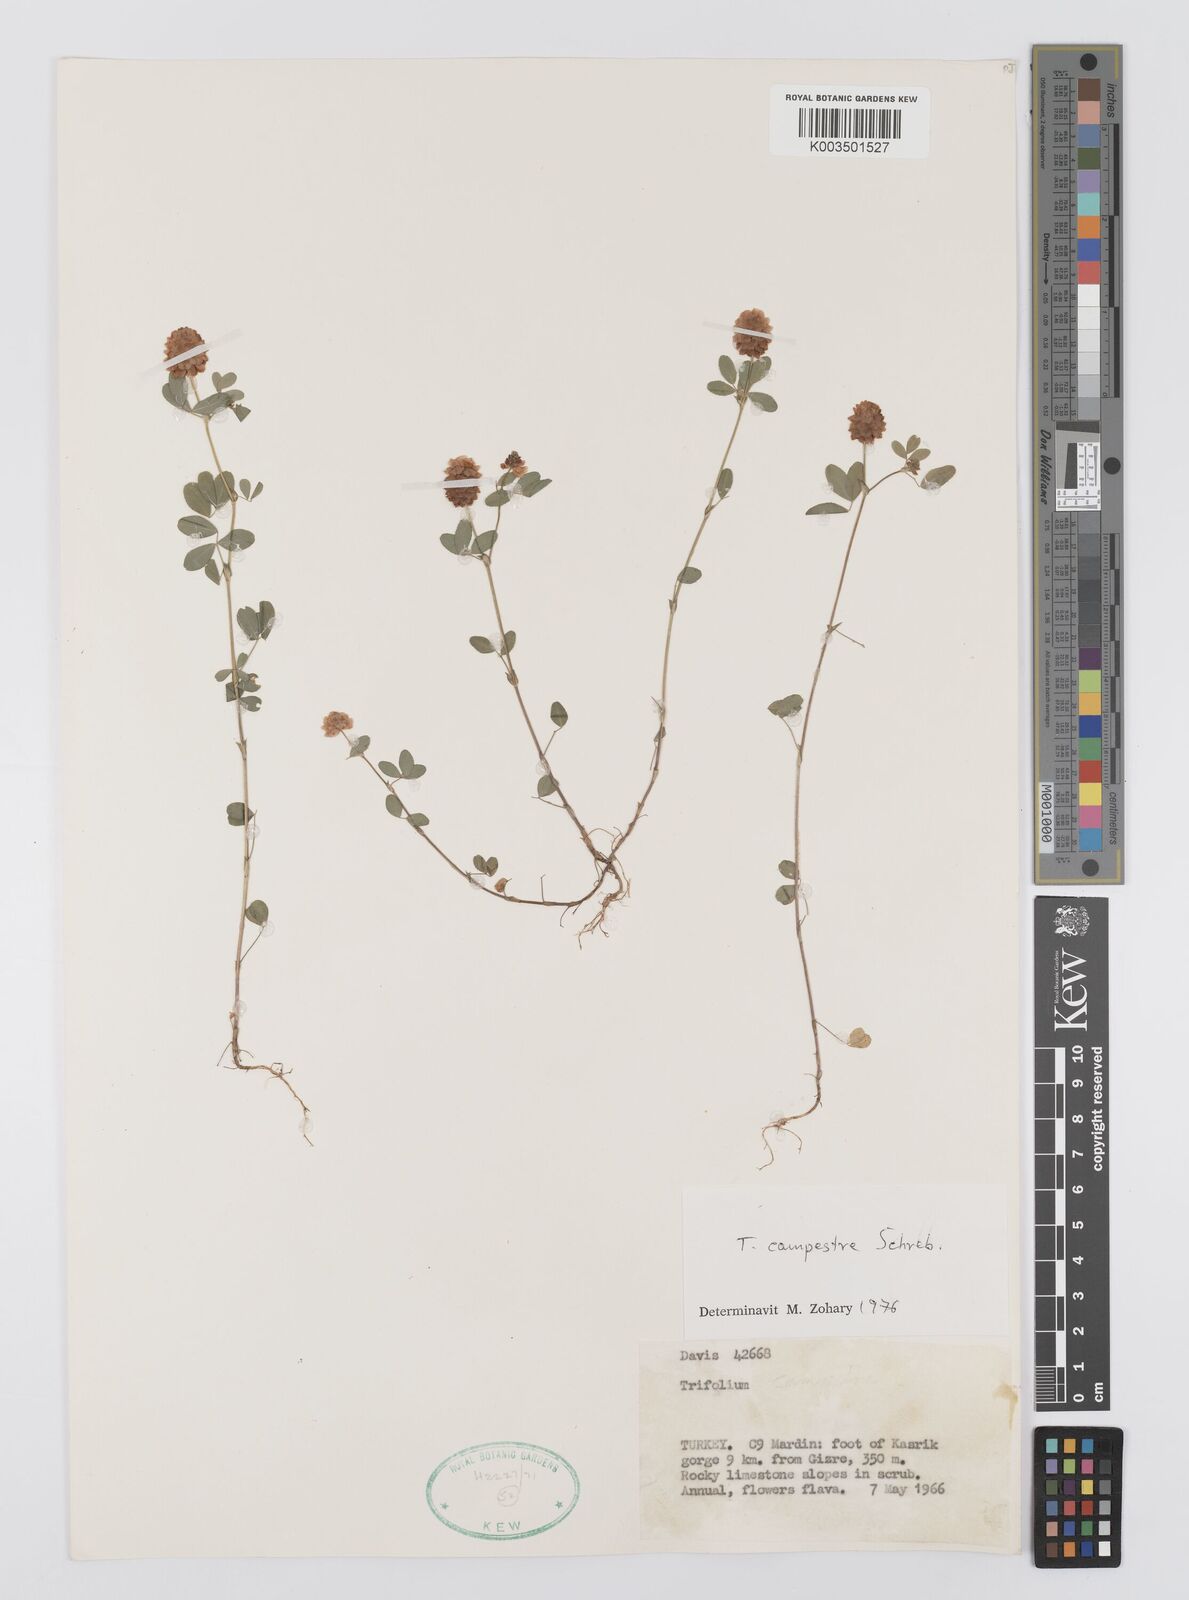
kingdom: Plantae
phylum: Tracheophyta
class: Magnoliopsida
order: Fabales
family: Fabaceae
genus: Trifolium
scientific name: Trifolium campestre
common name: Field clover
